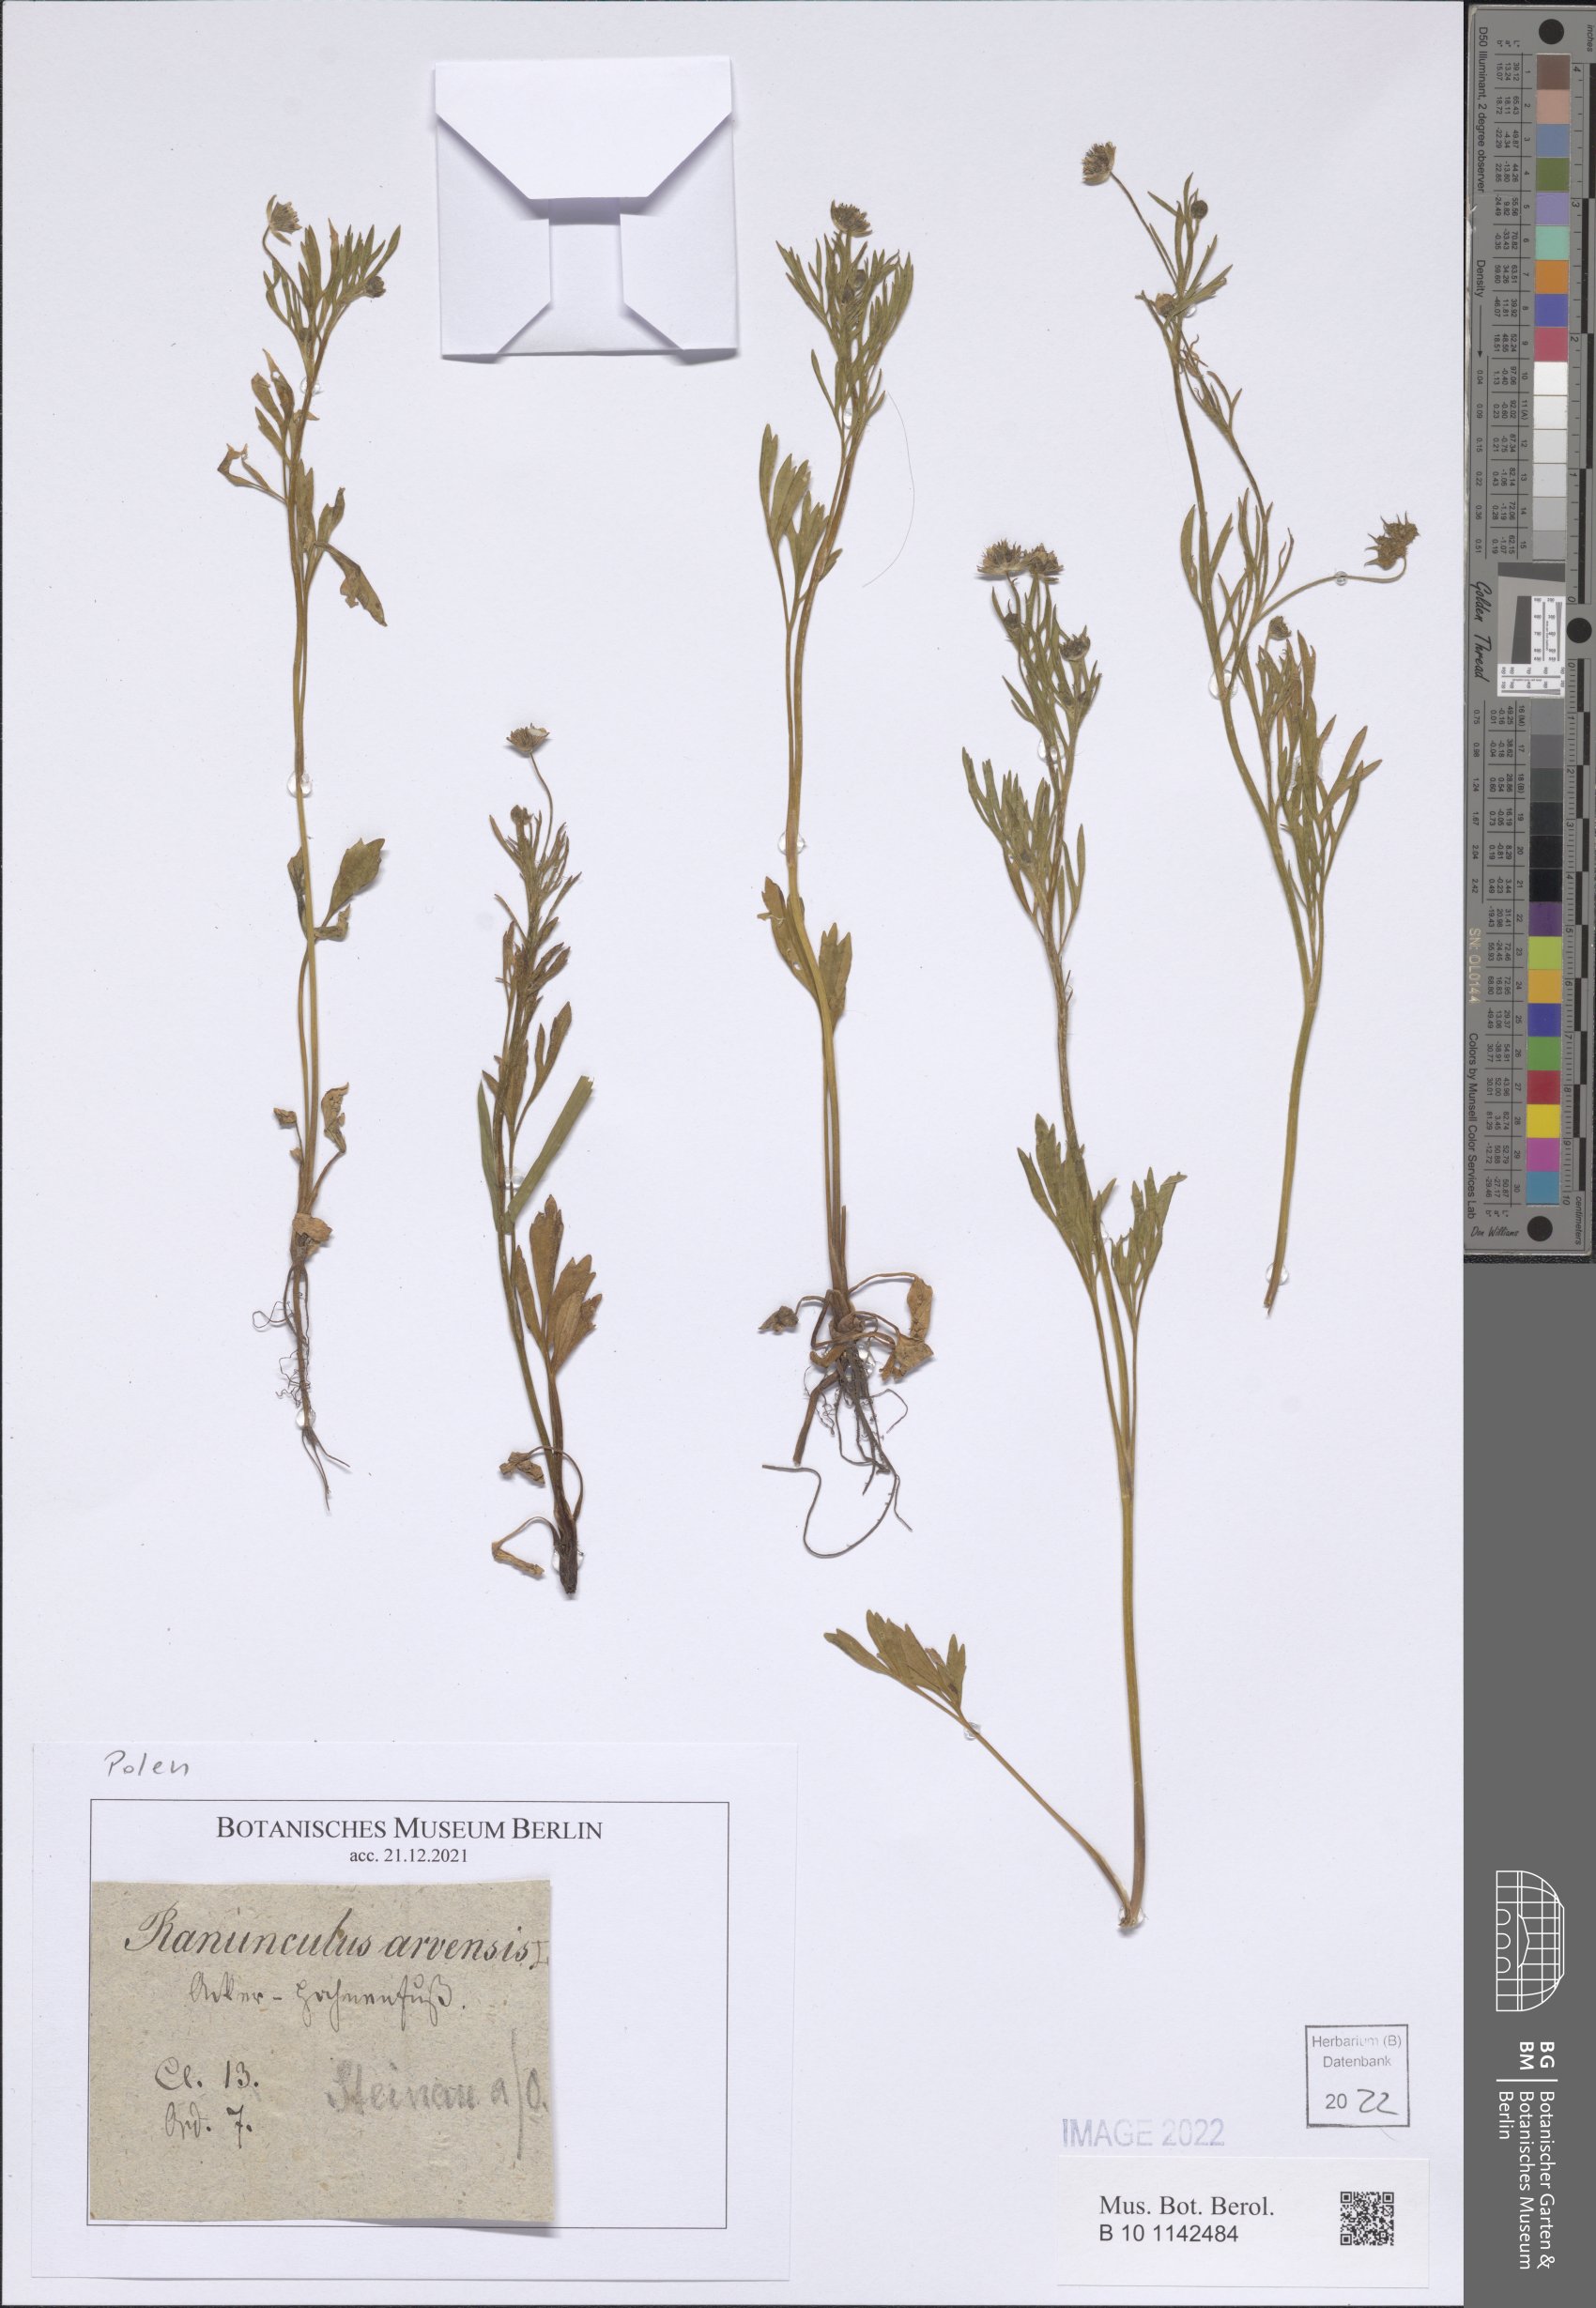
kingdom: Plantae
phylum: Tracheophyta
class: Magnoliopsida
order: Ranunculales
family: Ranunculaceae
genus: Ranunculus
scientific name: Ranunculus arvensis
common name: Corn buttercup
